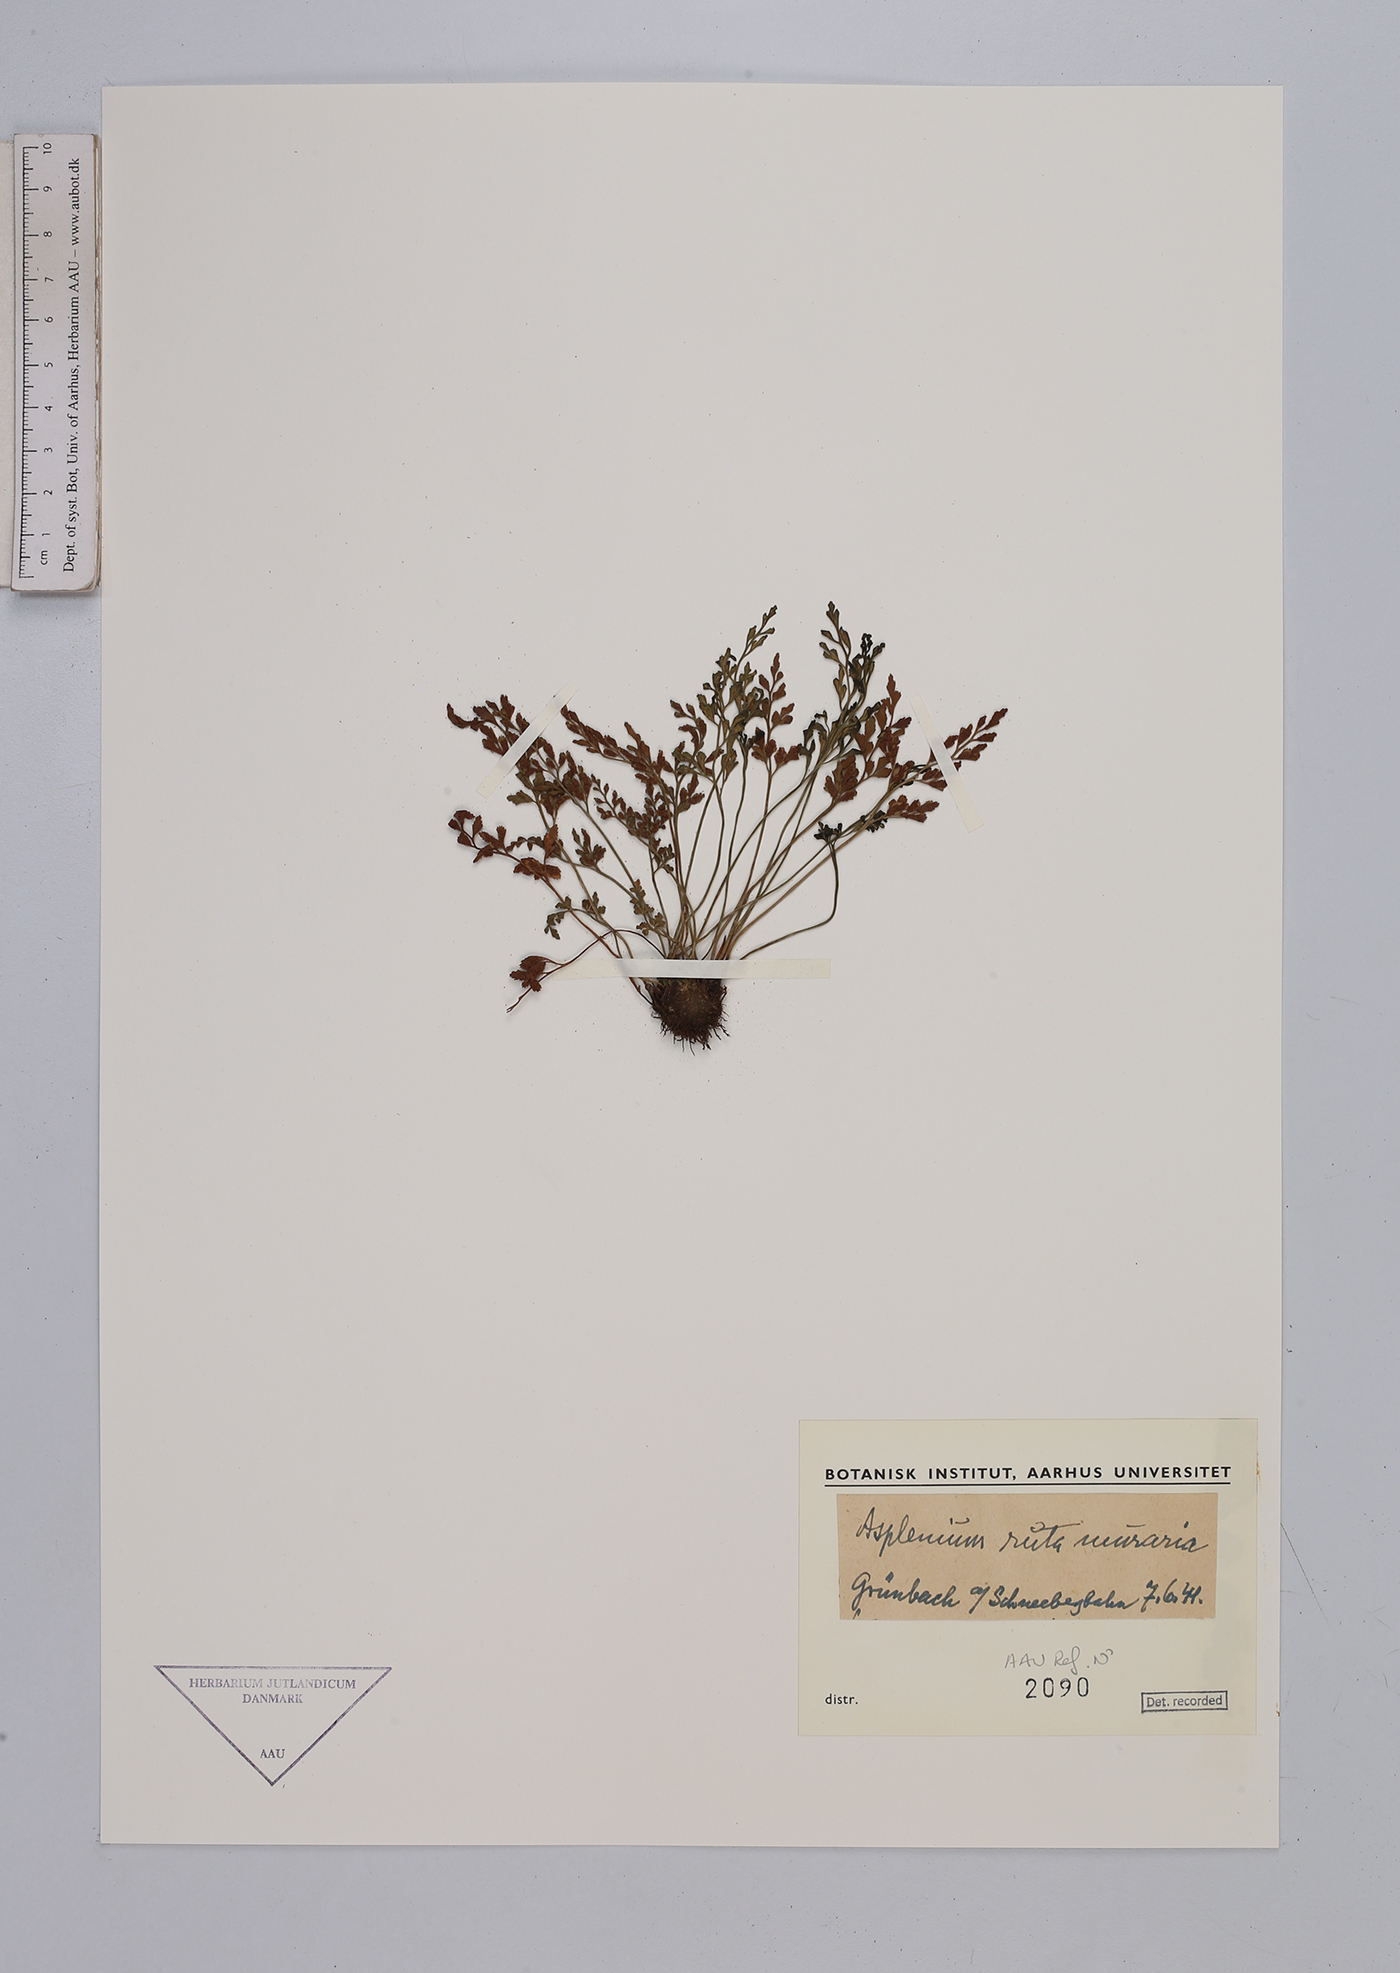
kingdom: Plantae
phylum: Tracheophyta
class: Polypodiopsida
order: Polypodiales
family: Aspleniaceae
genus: Asplenium
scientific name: Asplenium ruta-muraria
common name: Wall-rue
